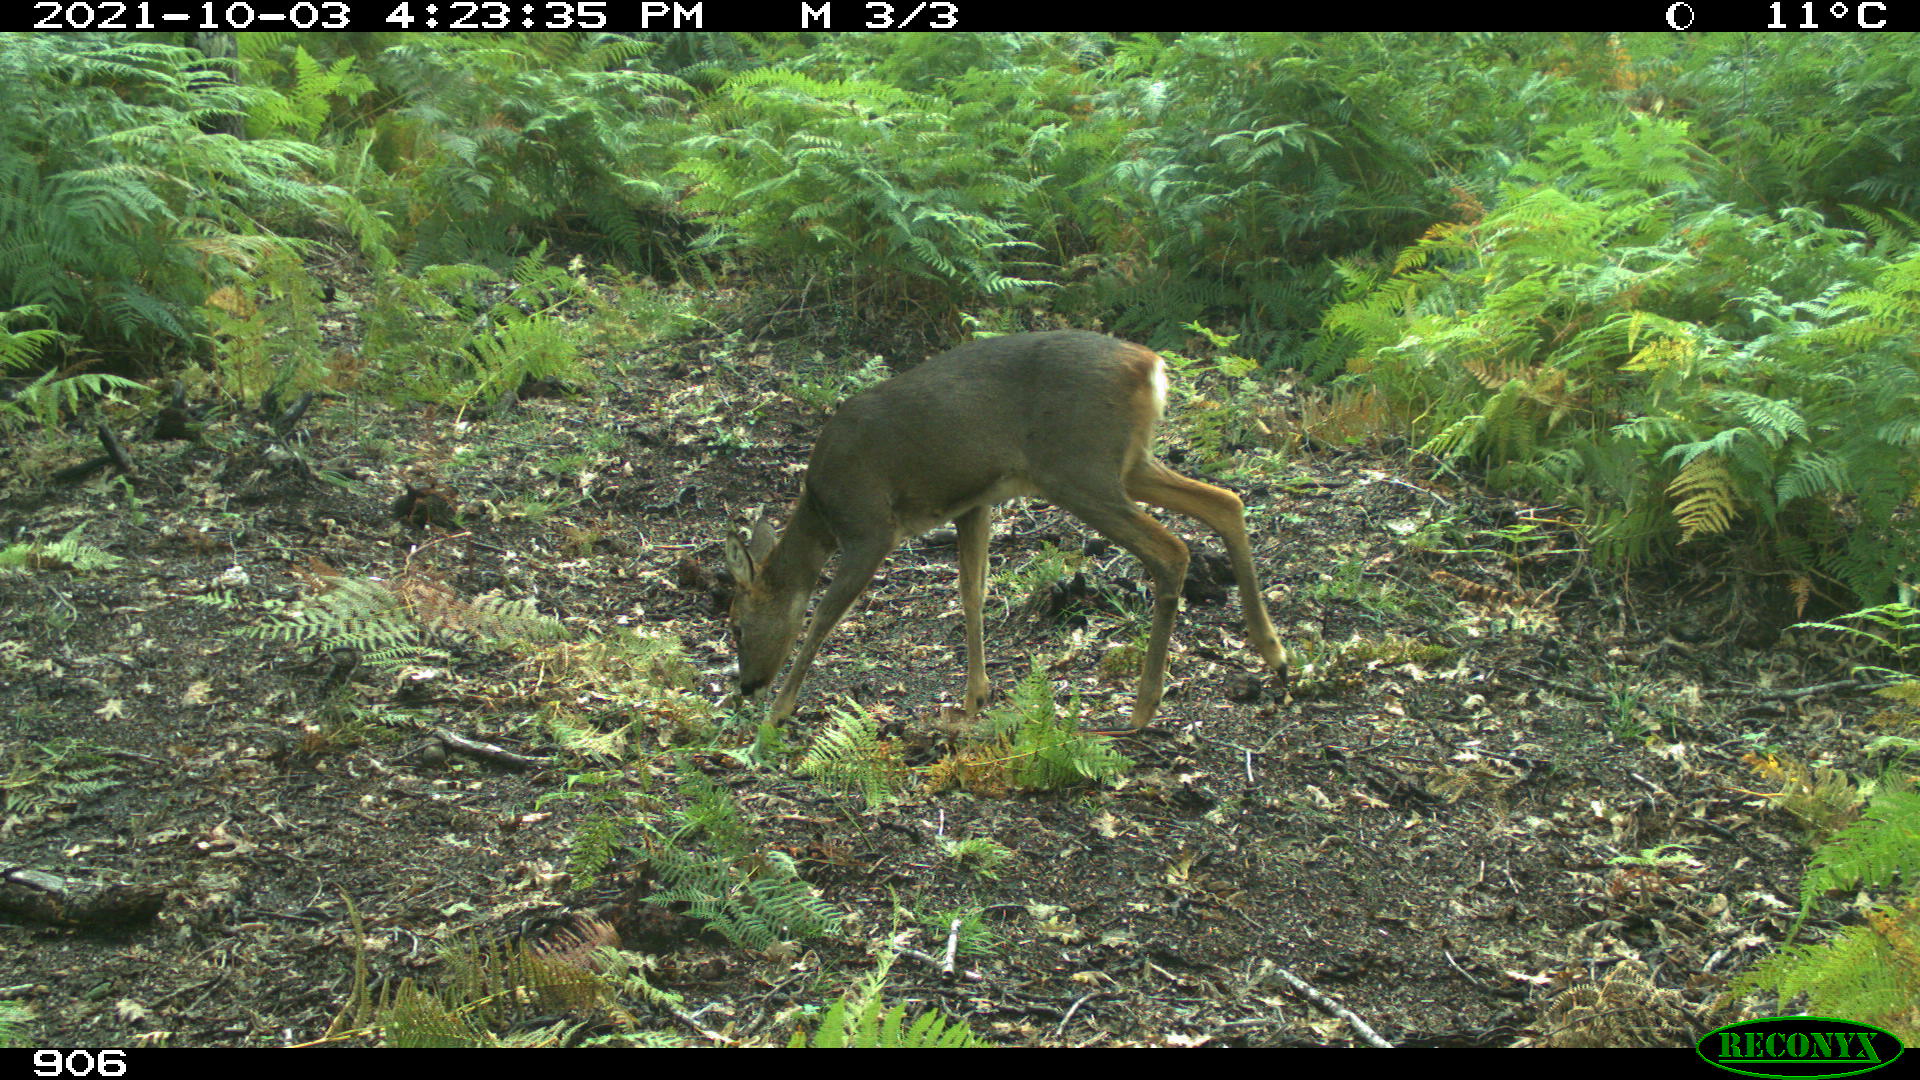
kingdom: Animalia
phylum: Chordata
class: Mammalia
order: Artiodactyla
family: Cervidae
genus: Capreolus
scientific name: Capreolus capreolus
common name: Western roe deer
